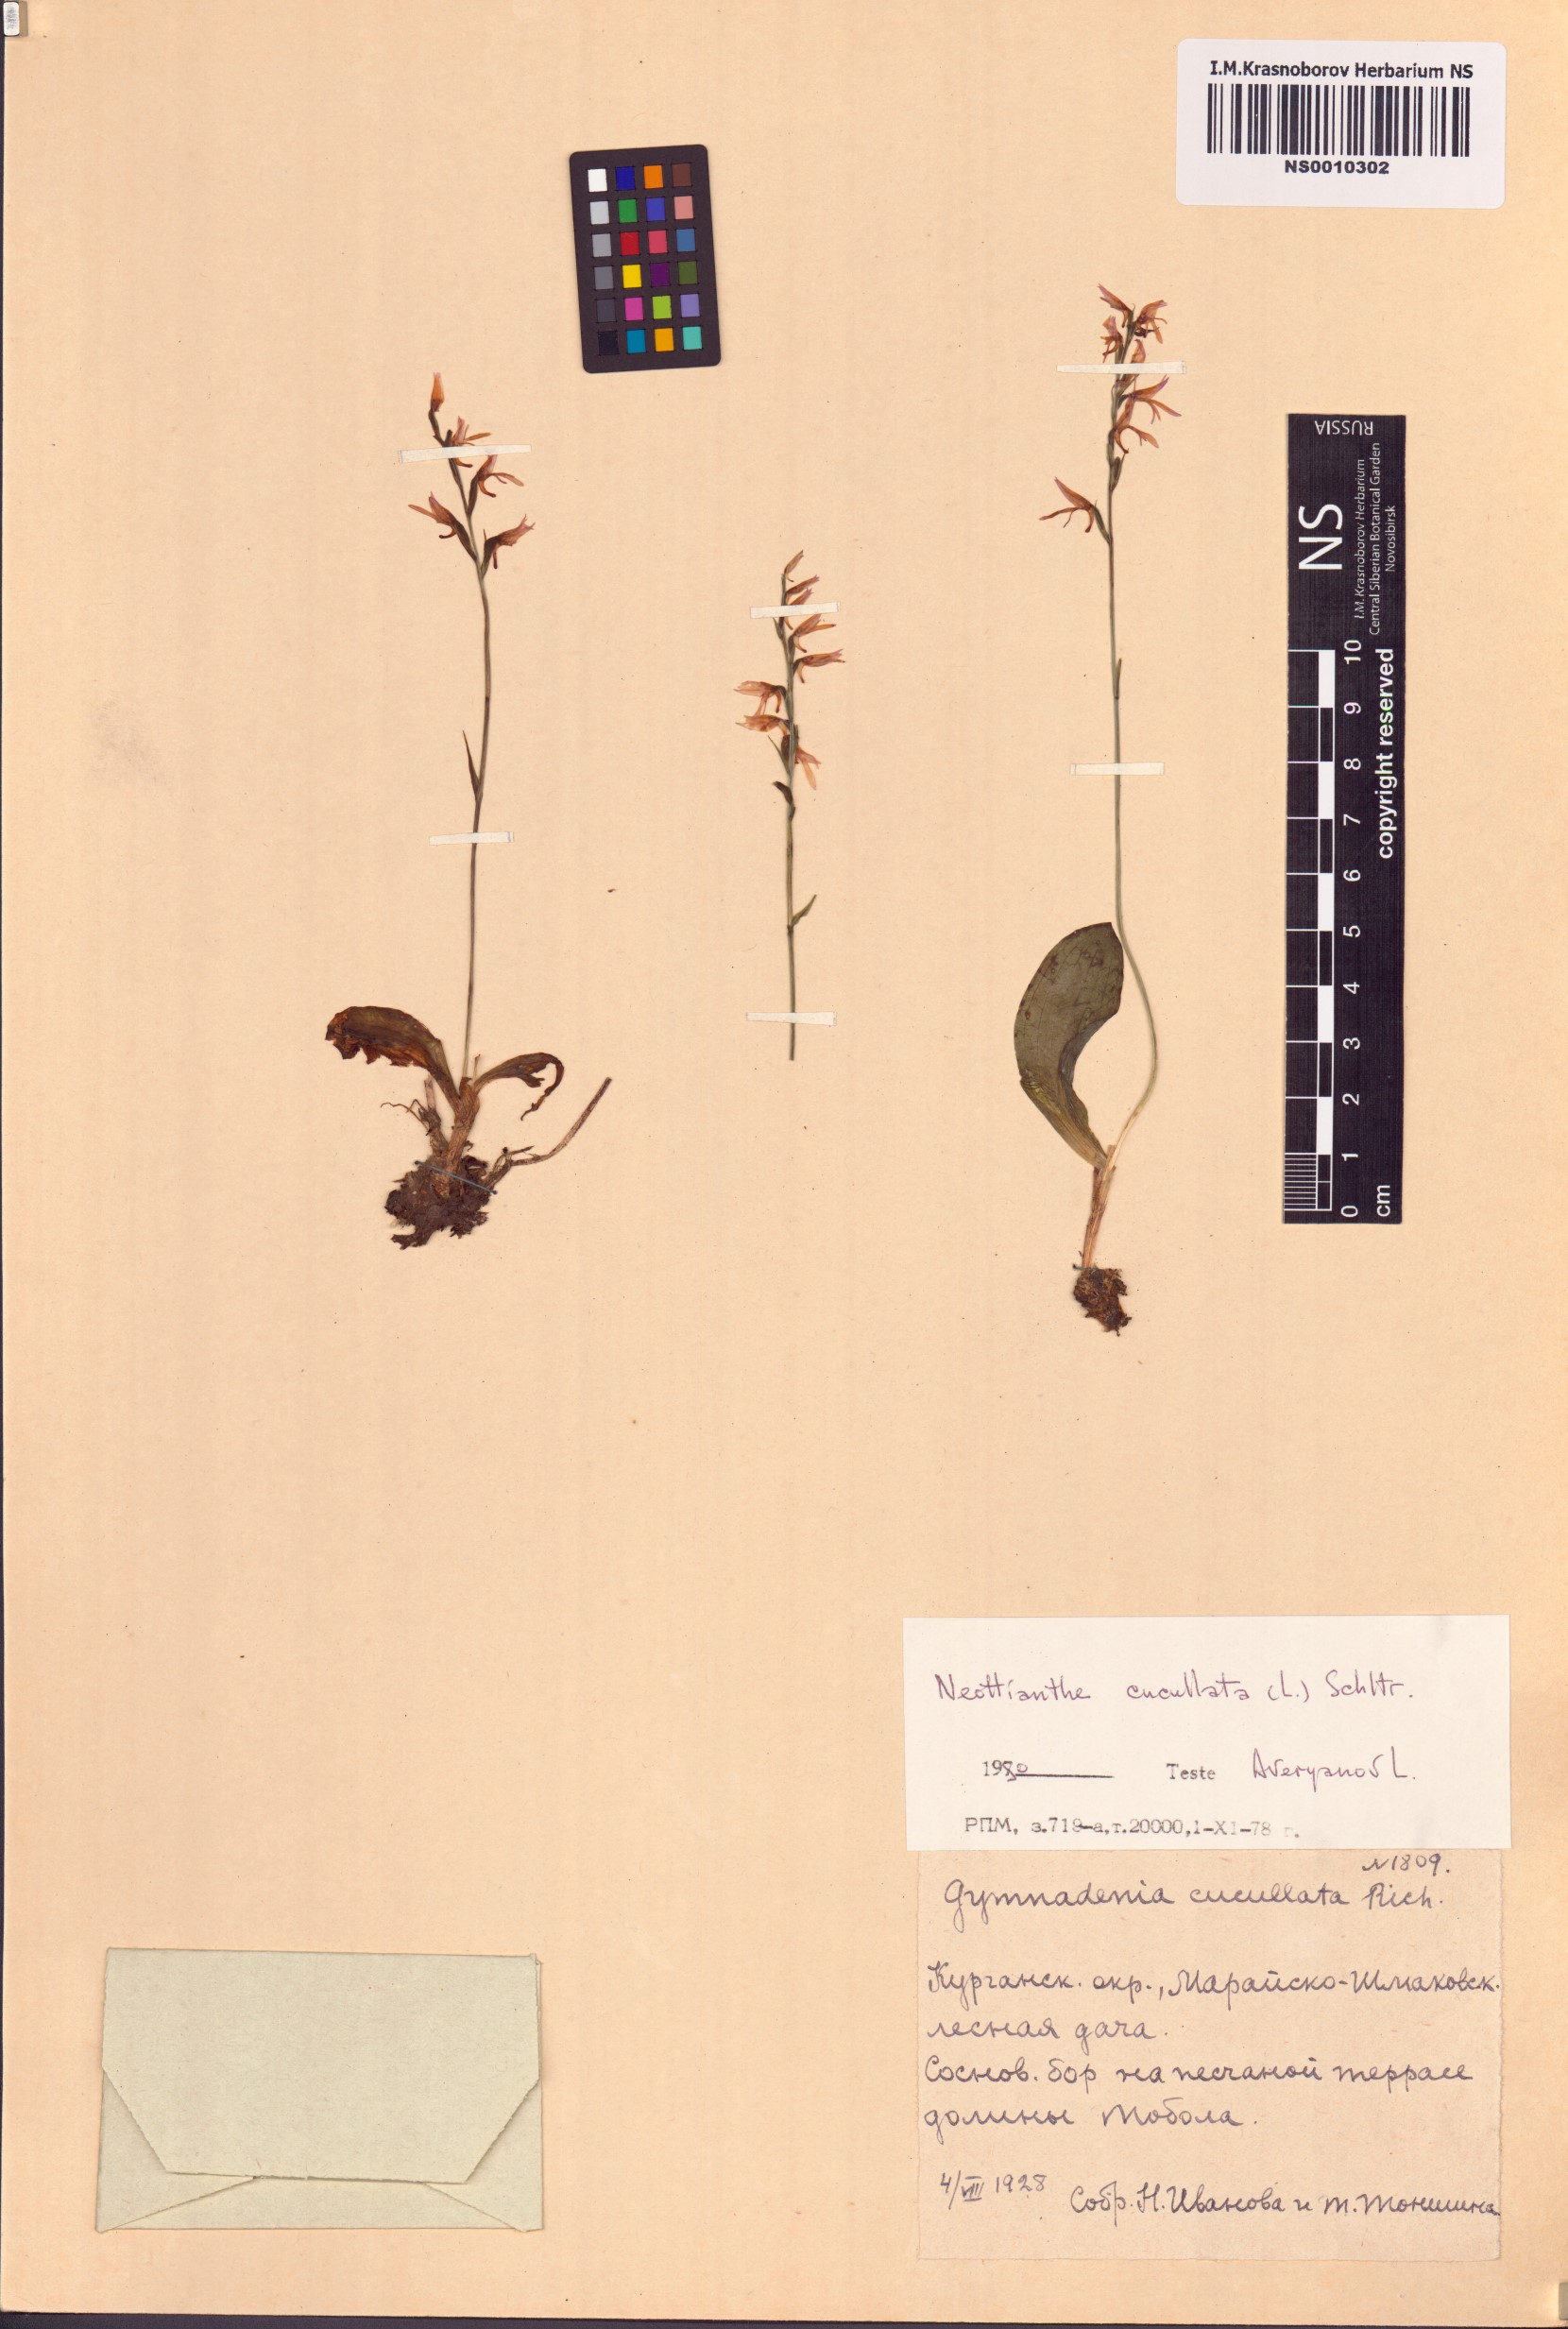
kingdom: Plantae
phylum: Tracheophyta
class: Liliopsida
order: Asparagales
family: Orchidaceae
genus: Hemipilia
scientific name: Hemipilia cucullata
